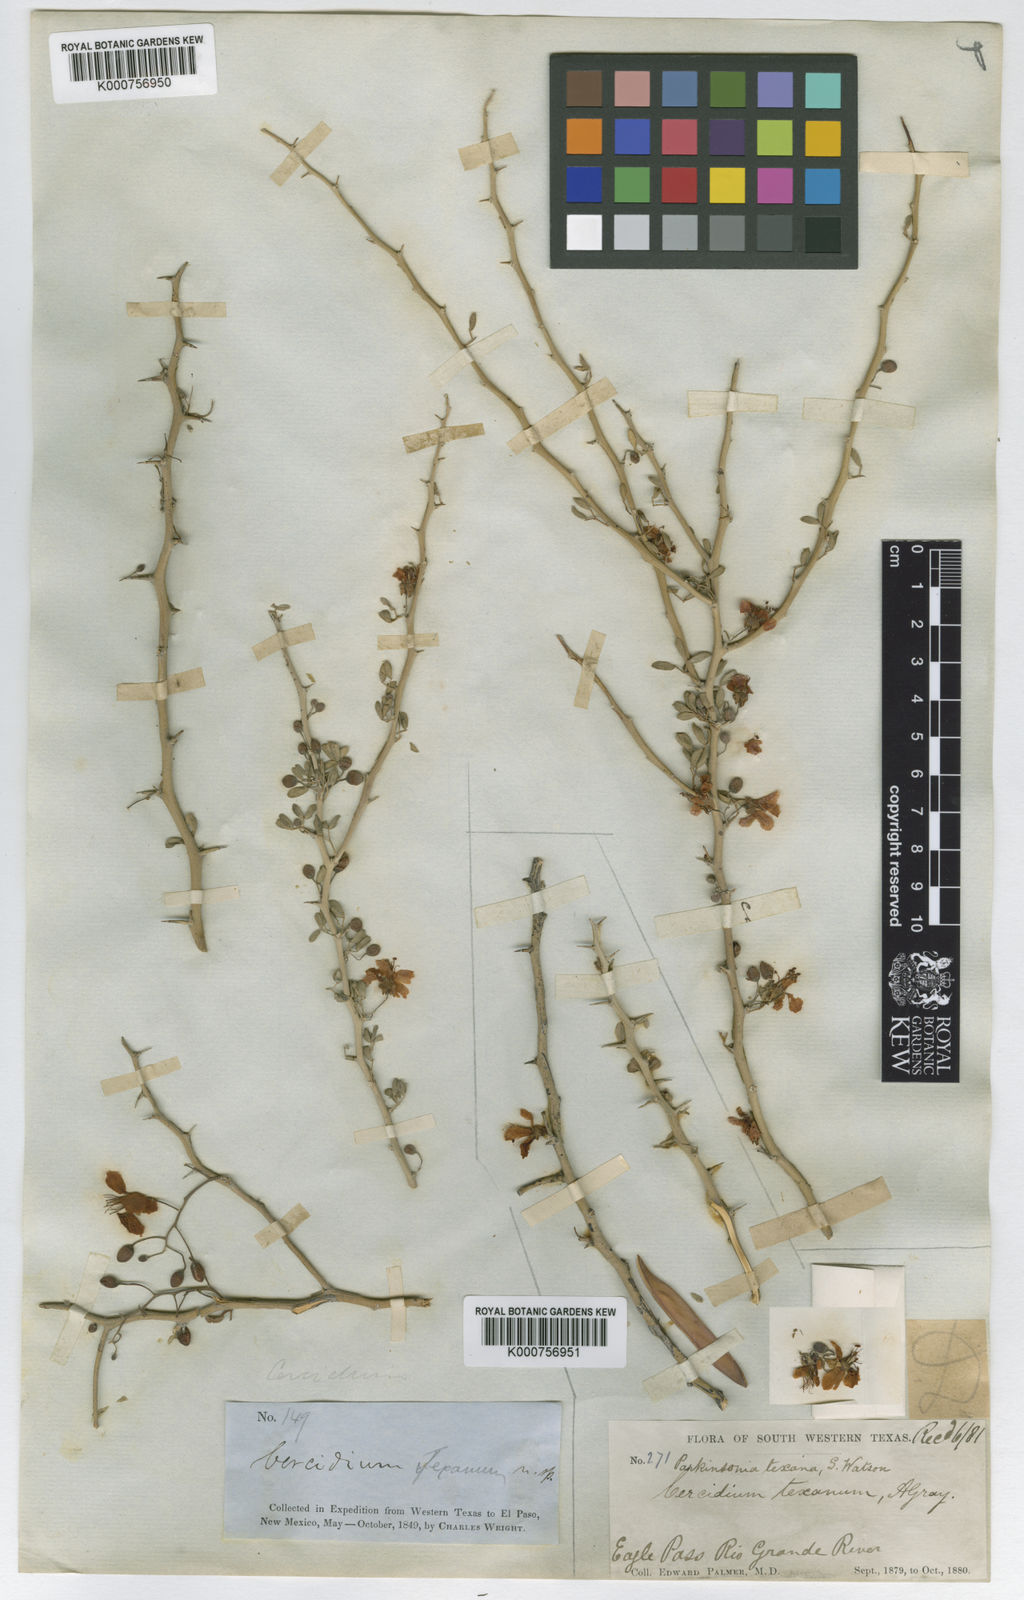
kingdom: Plantae
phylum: Tracheophyta
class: Magnoliopsida
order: Fabales
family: Fabaceae
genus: Parkinsonia
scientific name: Parkinsonia texana
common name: Texas paloverde
